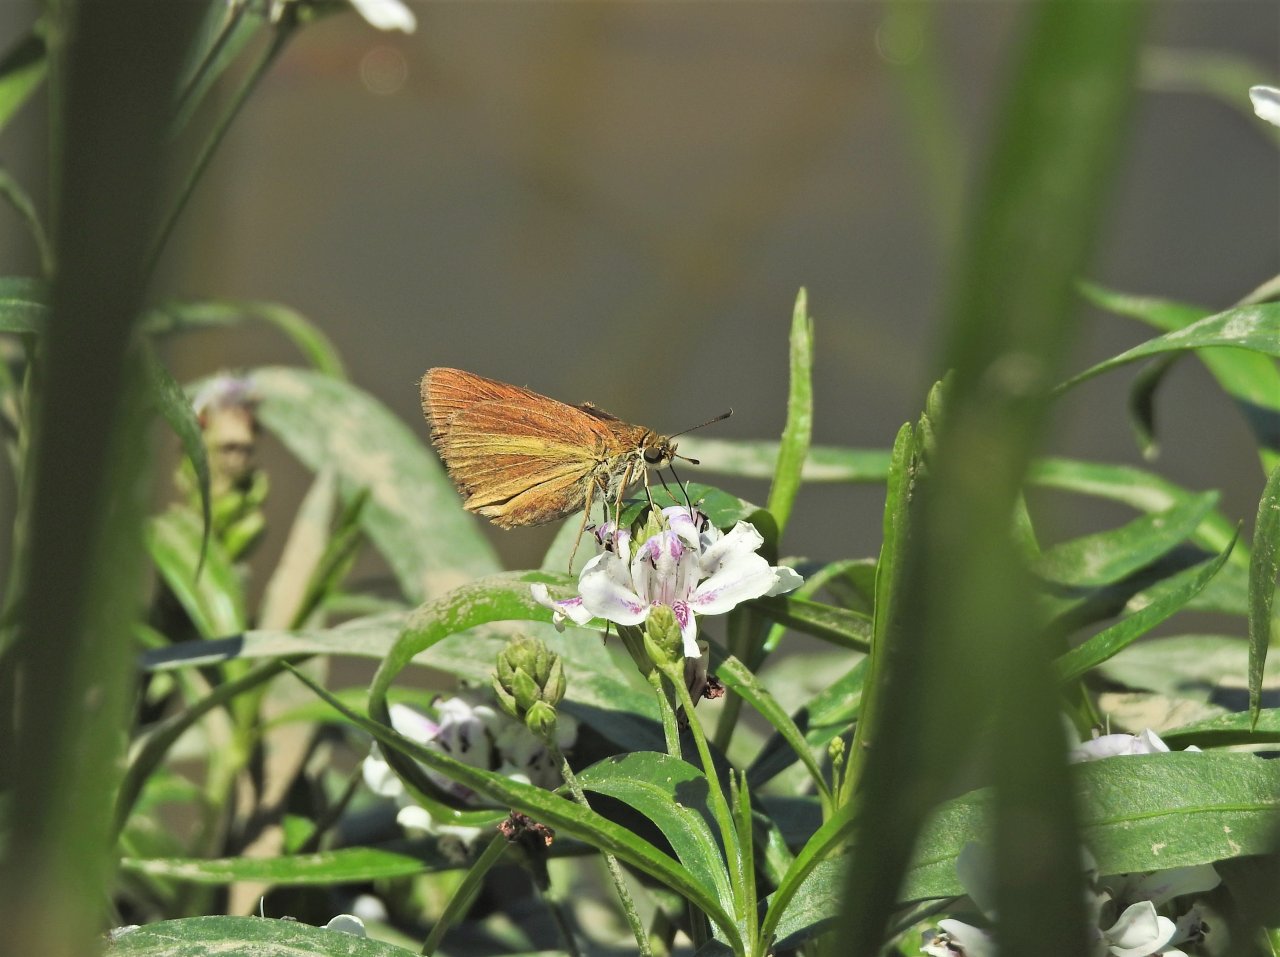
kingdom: Animalia
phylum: Arthropoda
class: Insecta
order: Lepidoptera
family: Hesperiidae
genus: Euphyes
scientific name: Euphyes dukesi
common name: Dukes' Skipper
